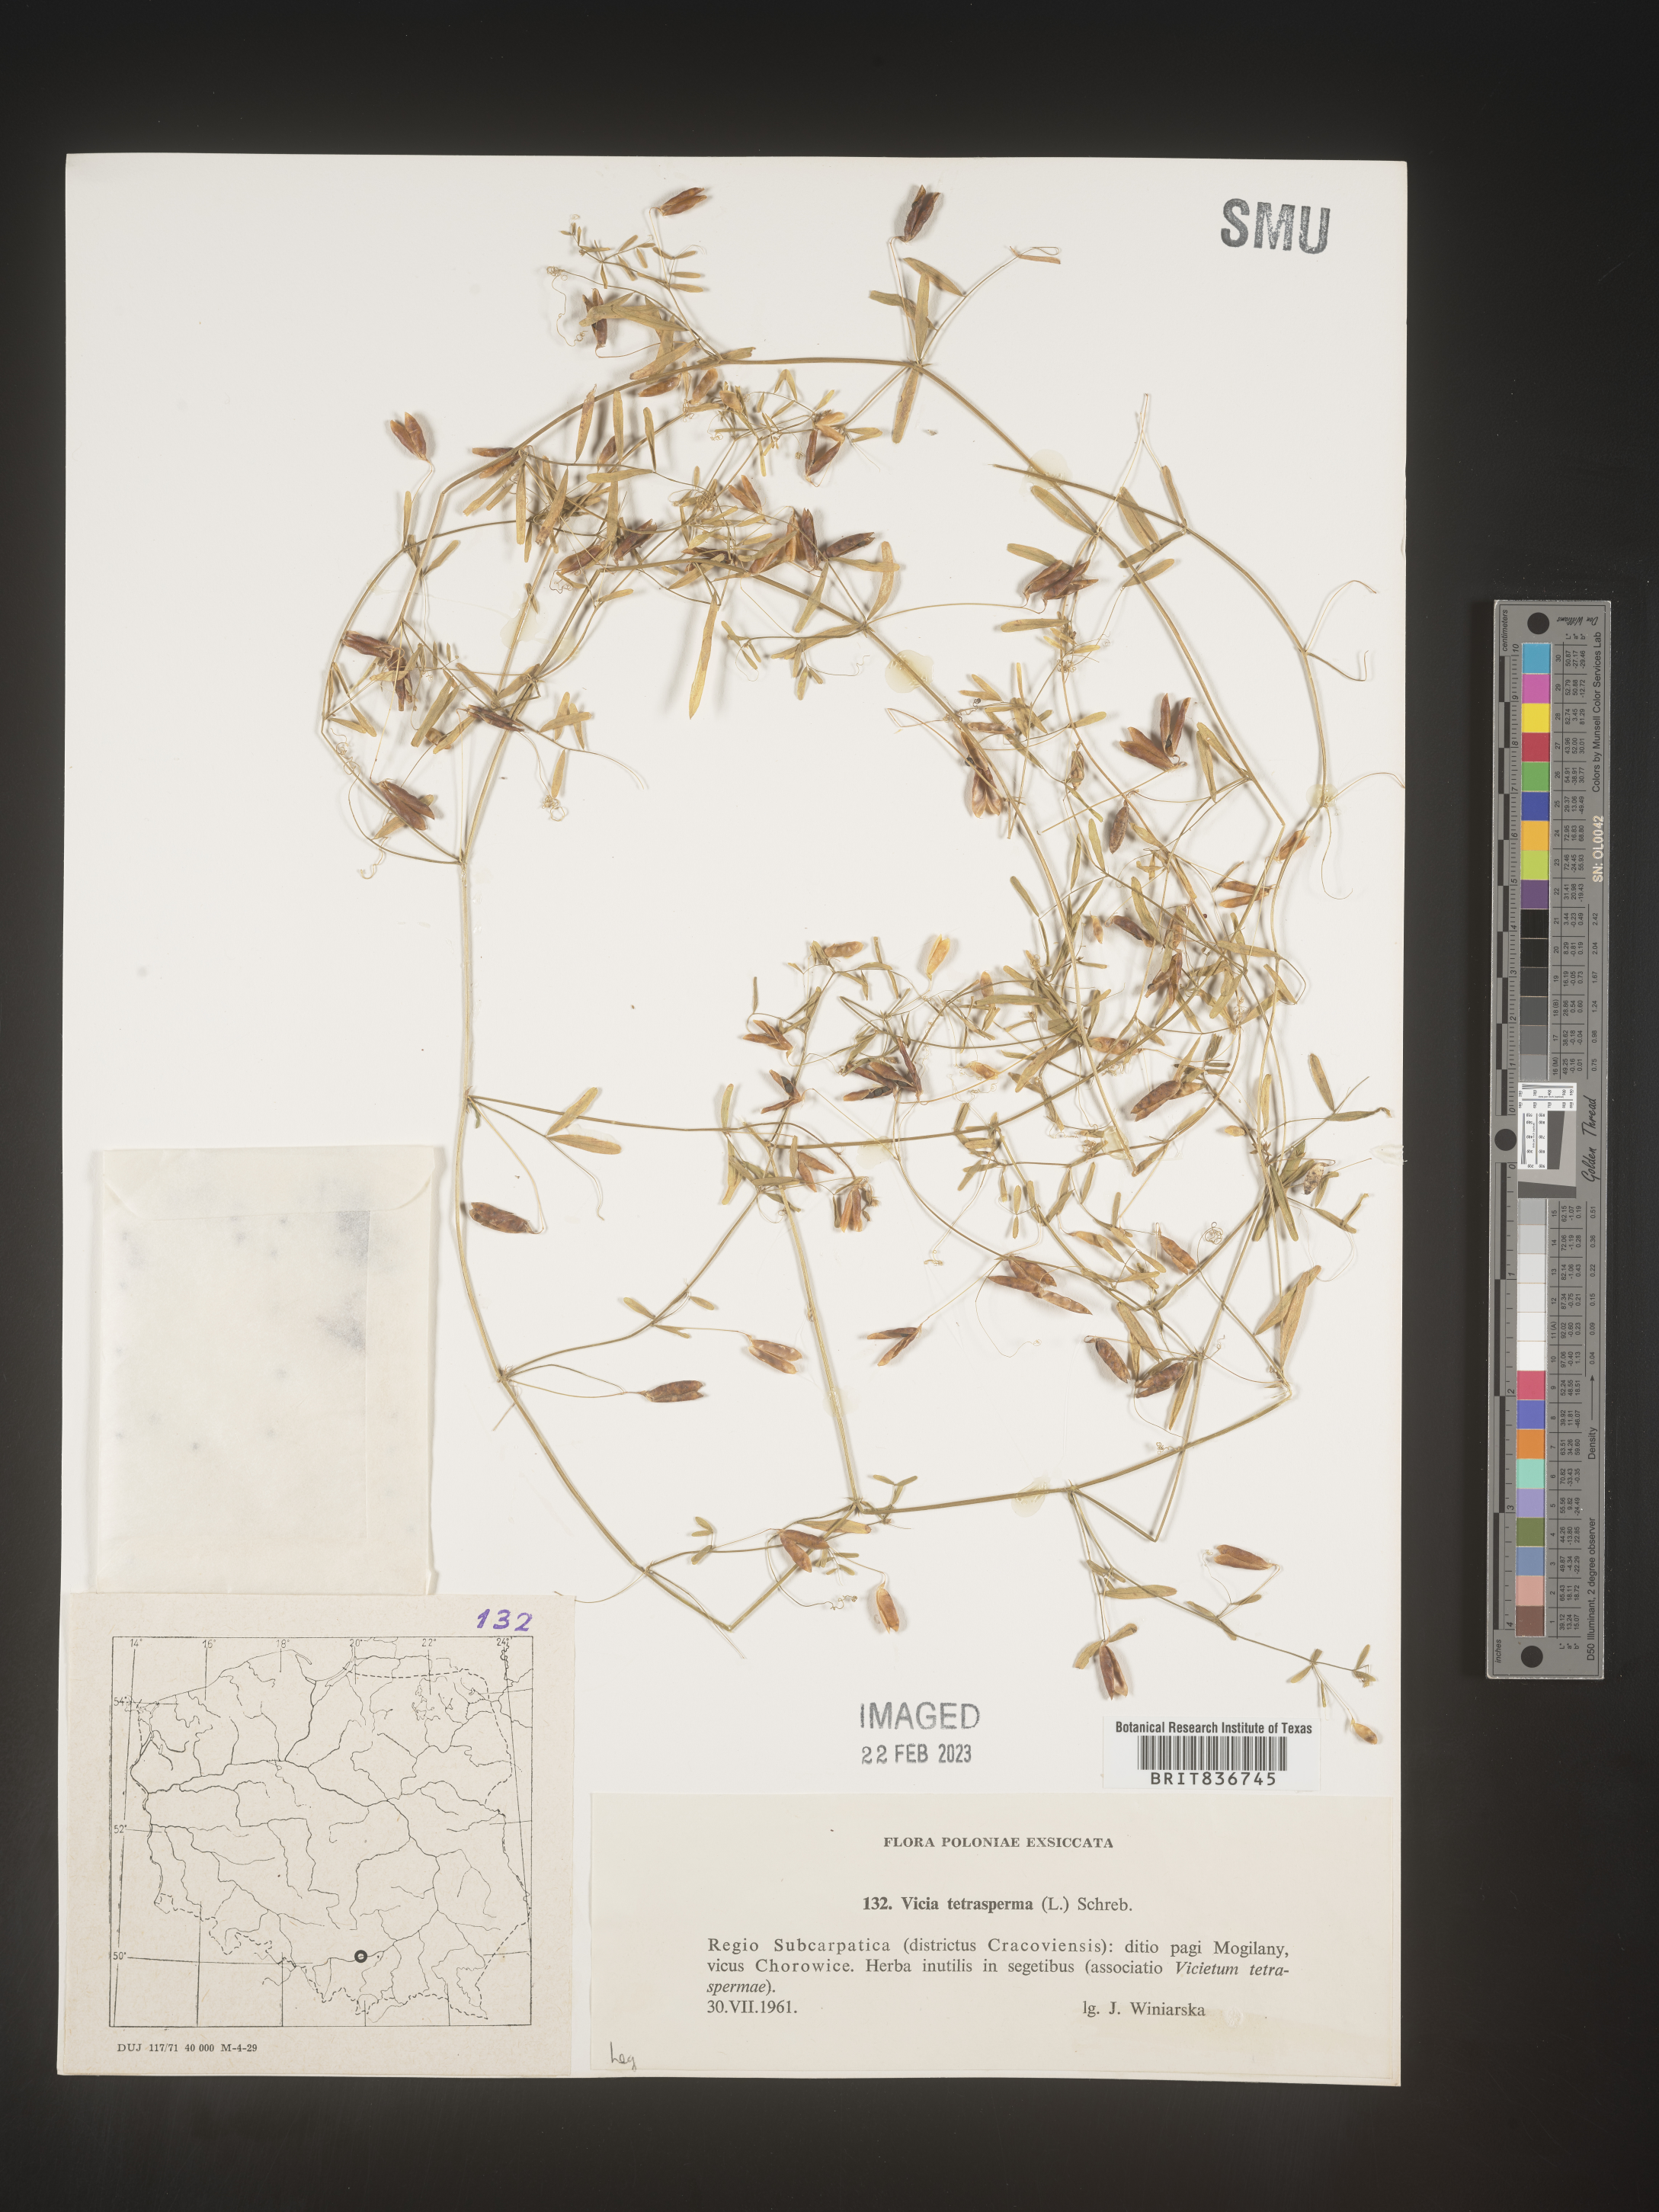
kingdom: Plantae
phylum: Tracheophyta
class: Magnoliopsida
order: Fabales
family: Fabaceae
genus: Vicia
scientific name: Vicia
